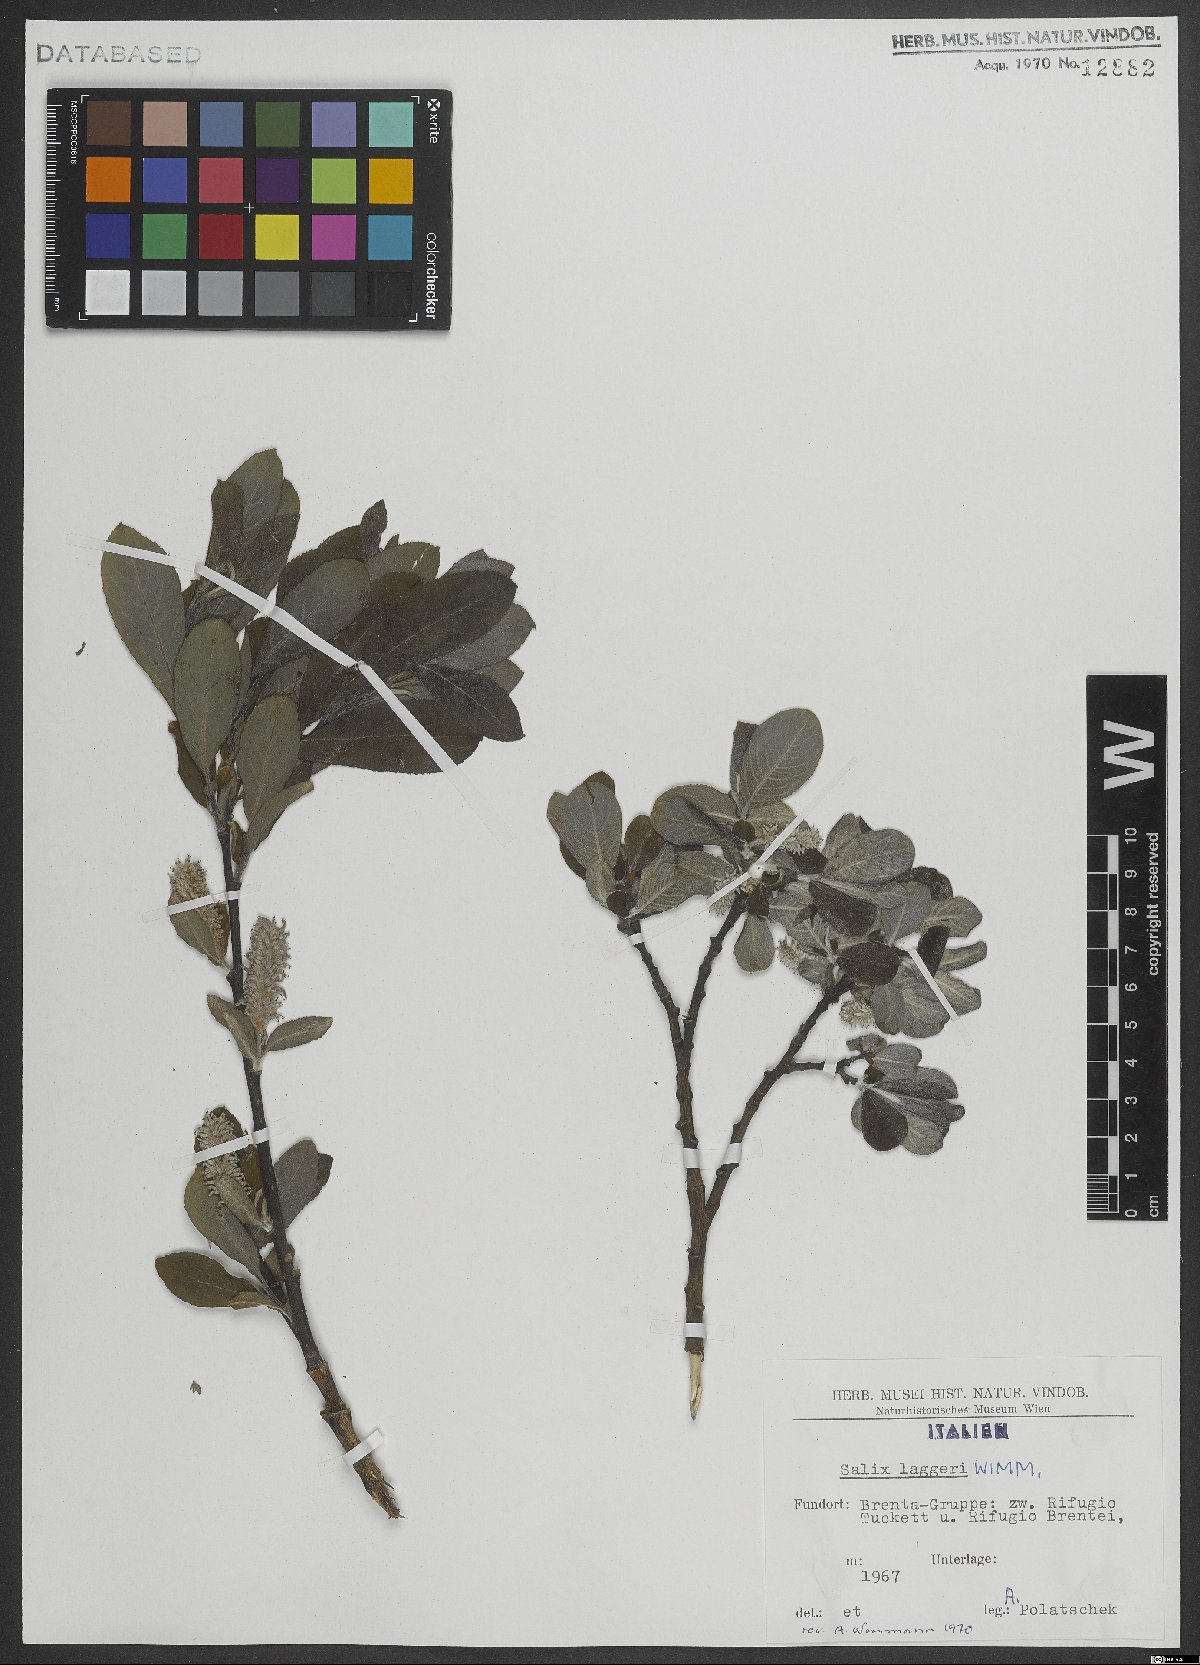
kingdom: Plantae
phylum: Tracheophyta
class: Magnoliopsida
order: Malpighiales
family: Salicaceae
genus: Salix
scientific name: Salix laggeri
